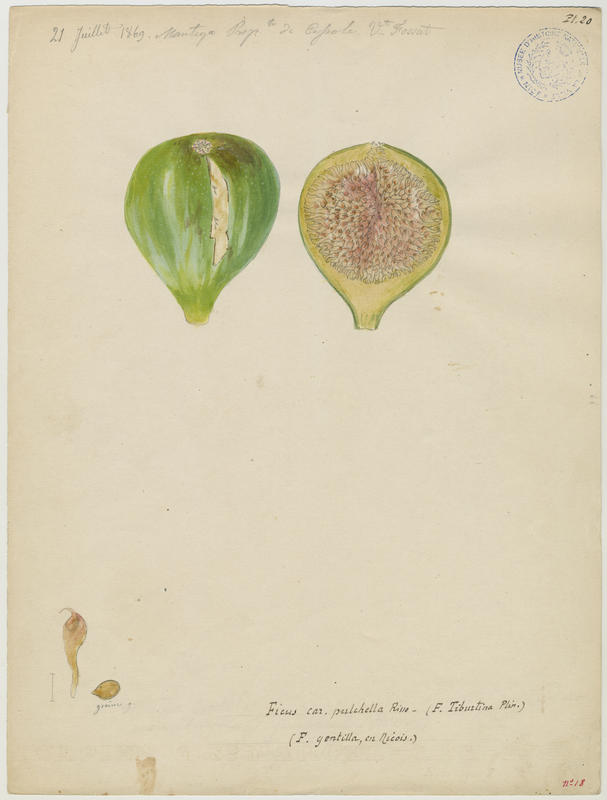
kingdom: Plantae
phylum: Tracheophyta
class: Magnoliopsida
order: Rosales
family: Moraceae
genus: Ficus
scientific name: Ficus carica
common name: Fig
